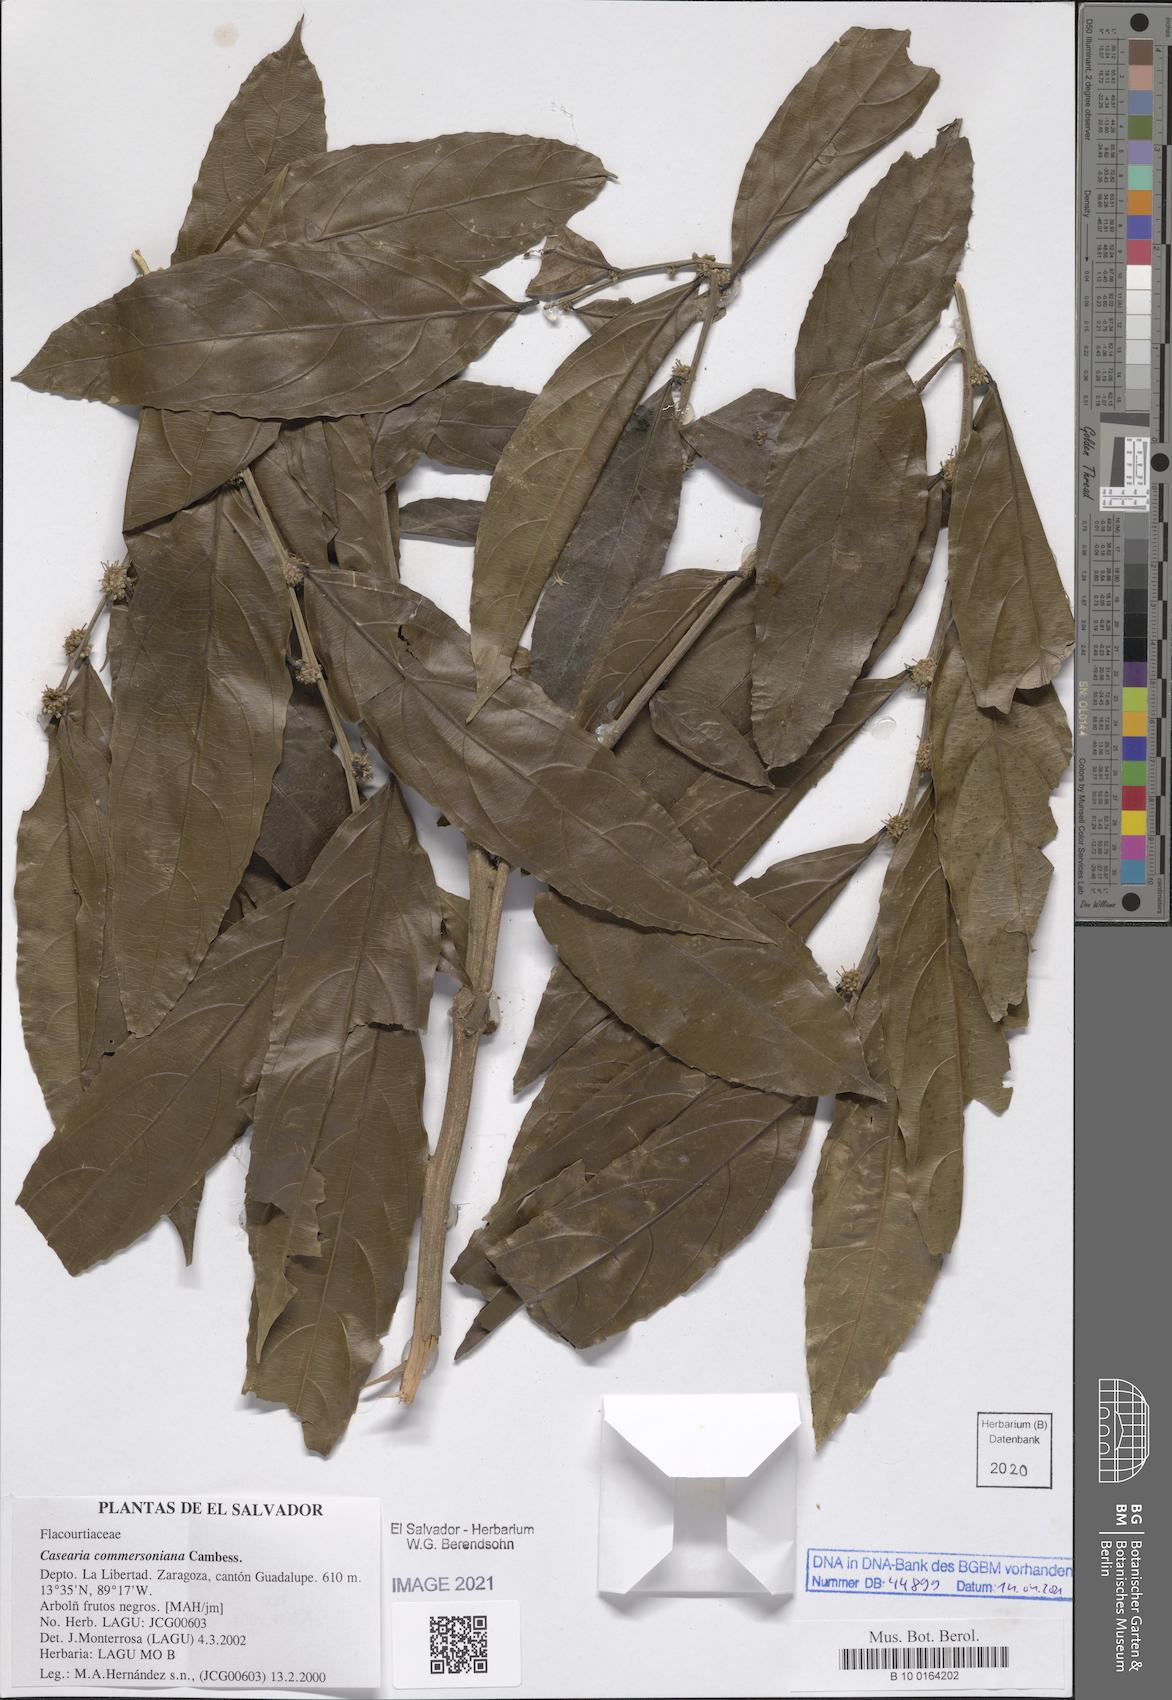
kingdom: Plantae
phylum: Tracheophyta
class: Magnoliopsida
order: Malpighiales
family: Salicaceae
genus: Piparea
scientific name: Piparea dentata
